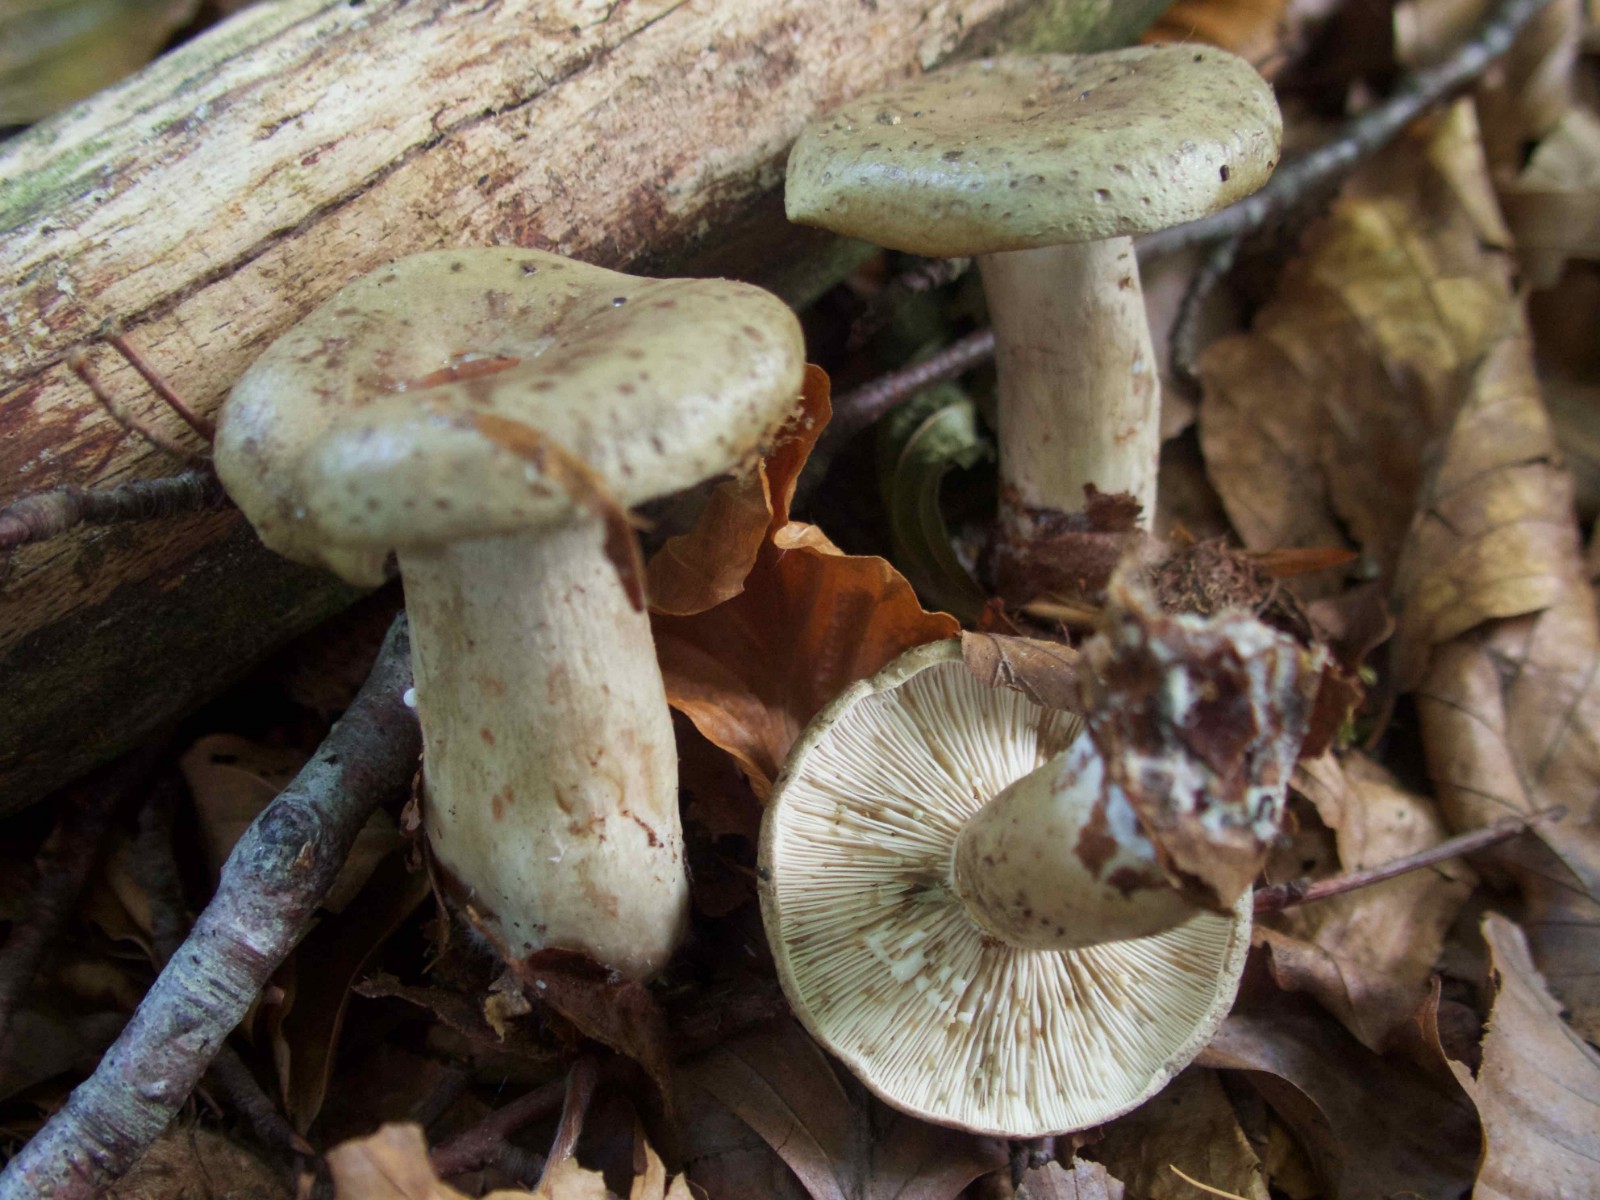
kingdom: Fungi
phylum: Basidiomycota
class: Agaricomycetes
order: Russulales
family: Russulaceae
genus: Lactarius
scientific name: Lactarius blennius
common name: dråbeplettet mælkehat
